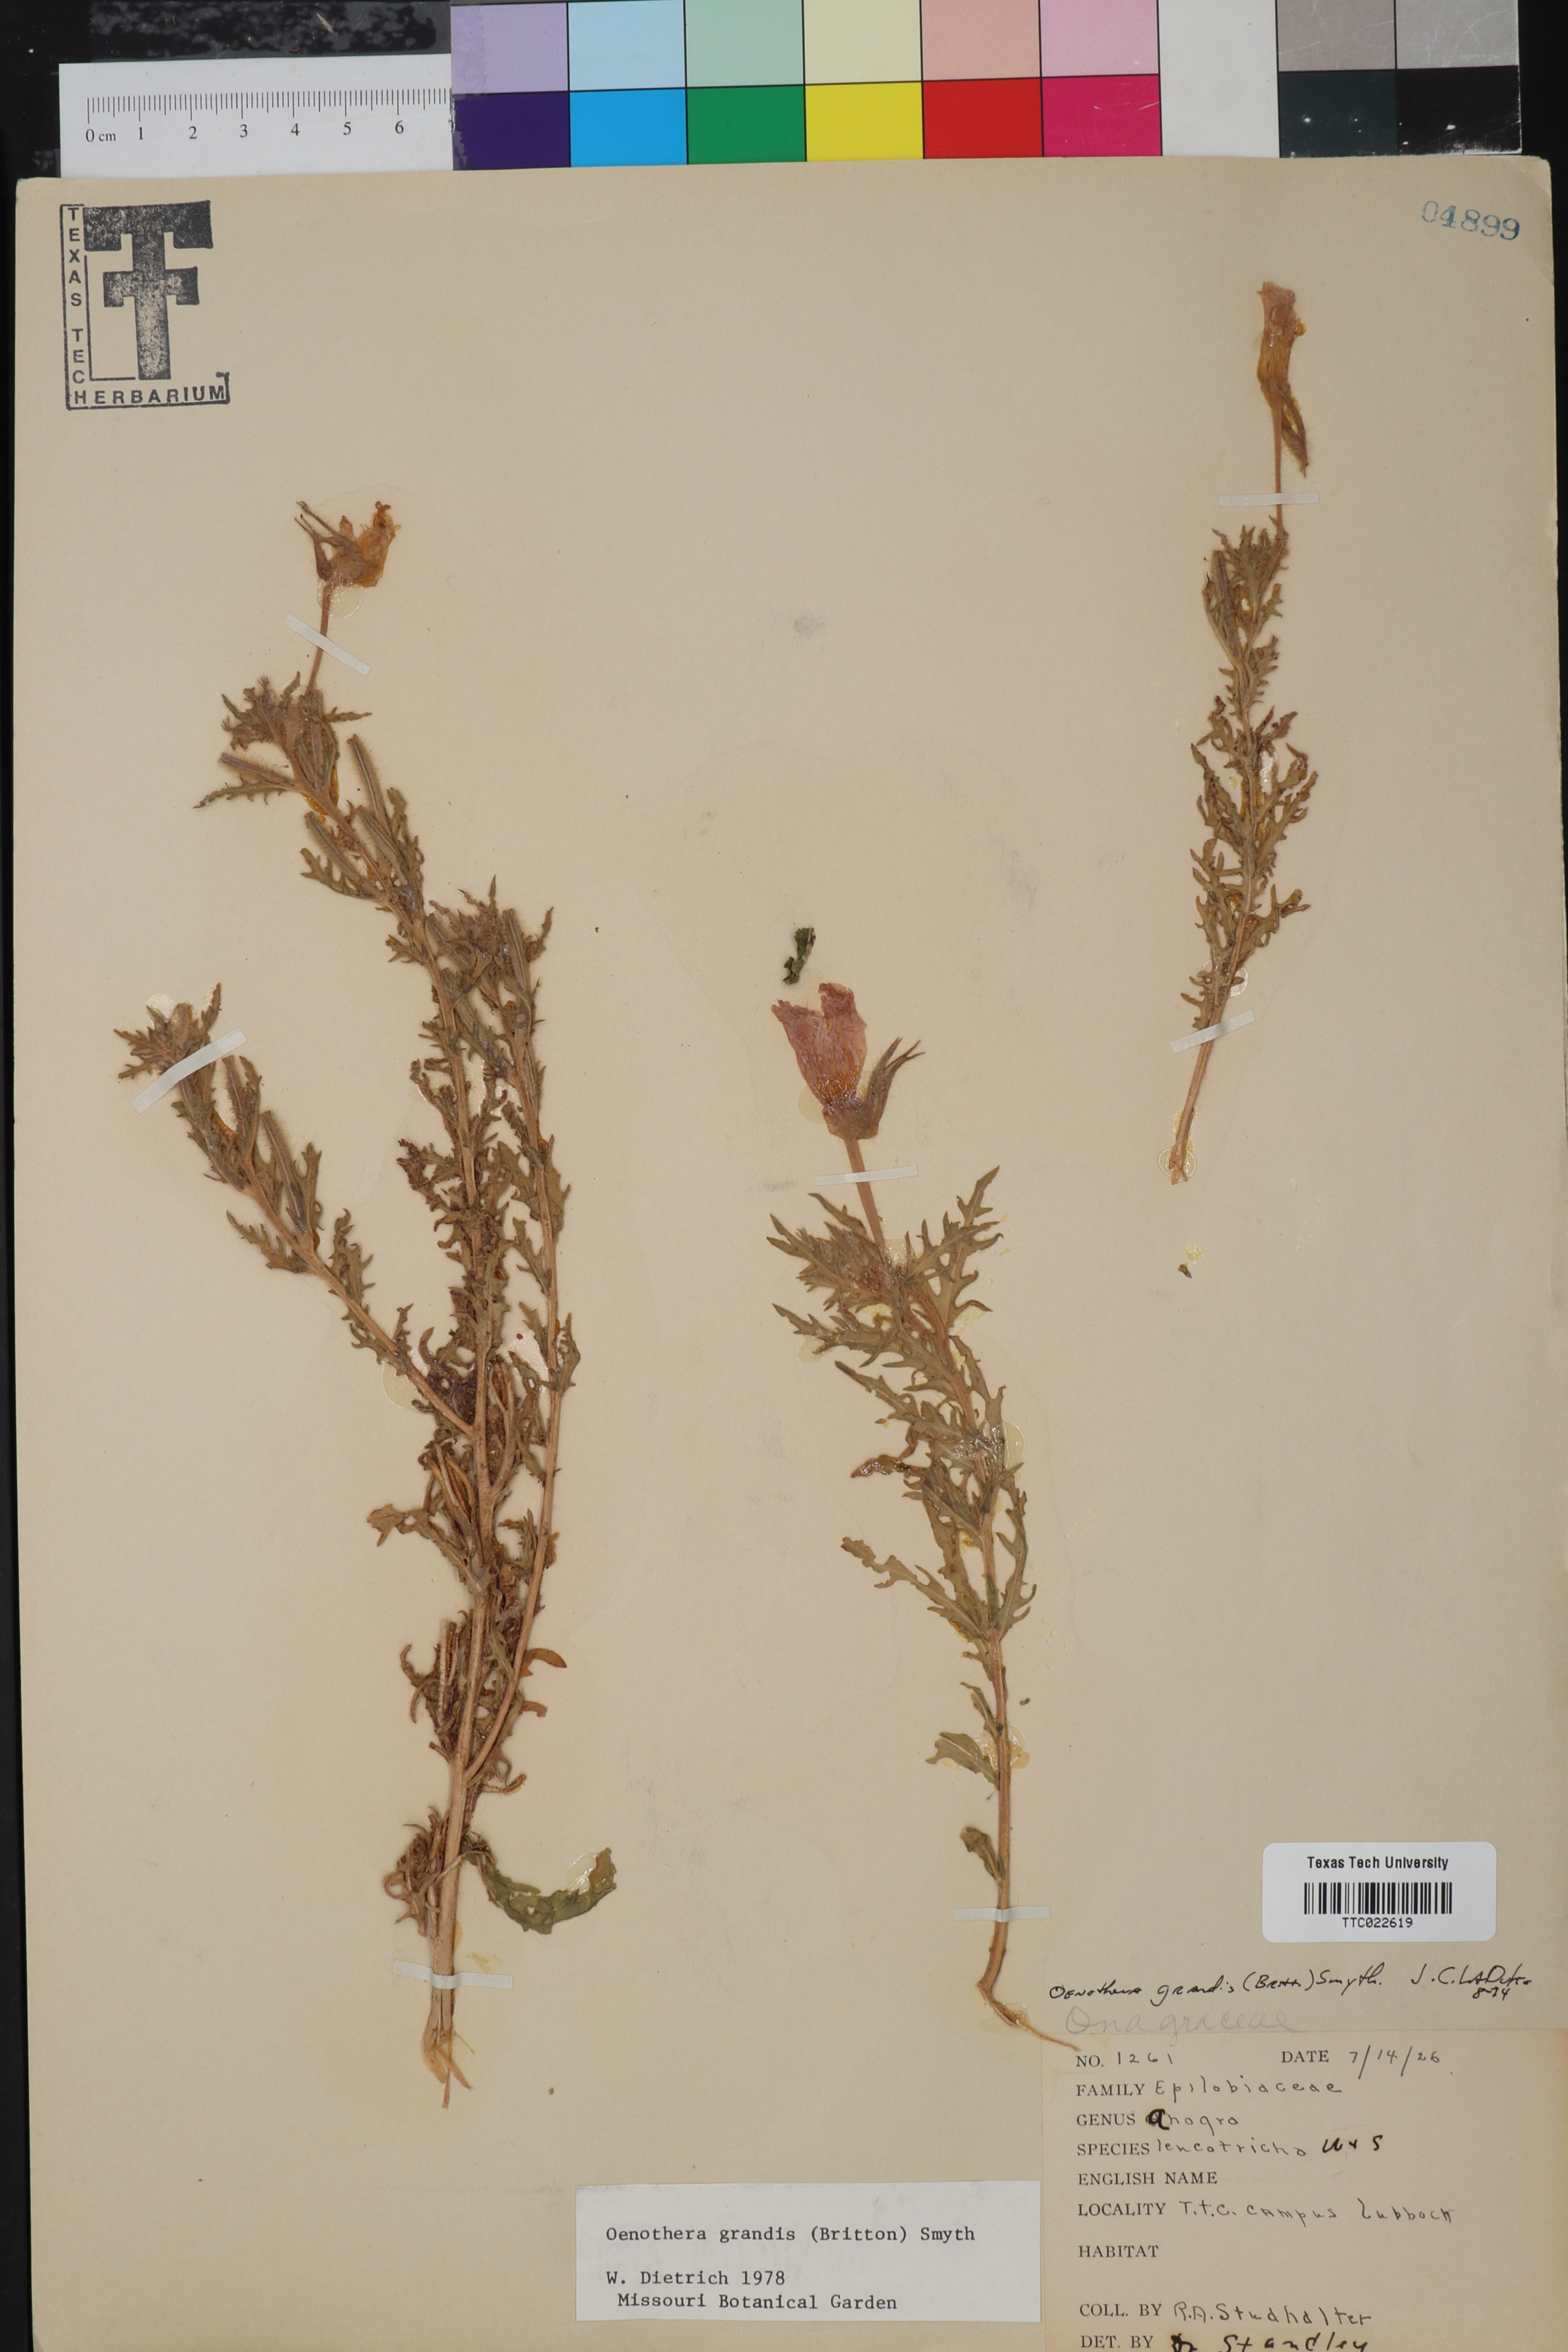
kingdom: Plantae
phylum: Tracheophyta
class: Magnoliopsida
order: Myrtales
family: Onagraceae
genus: Oenothera
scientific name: Oenothera grandis
